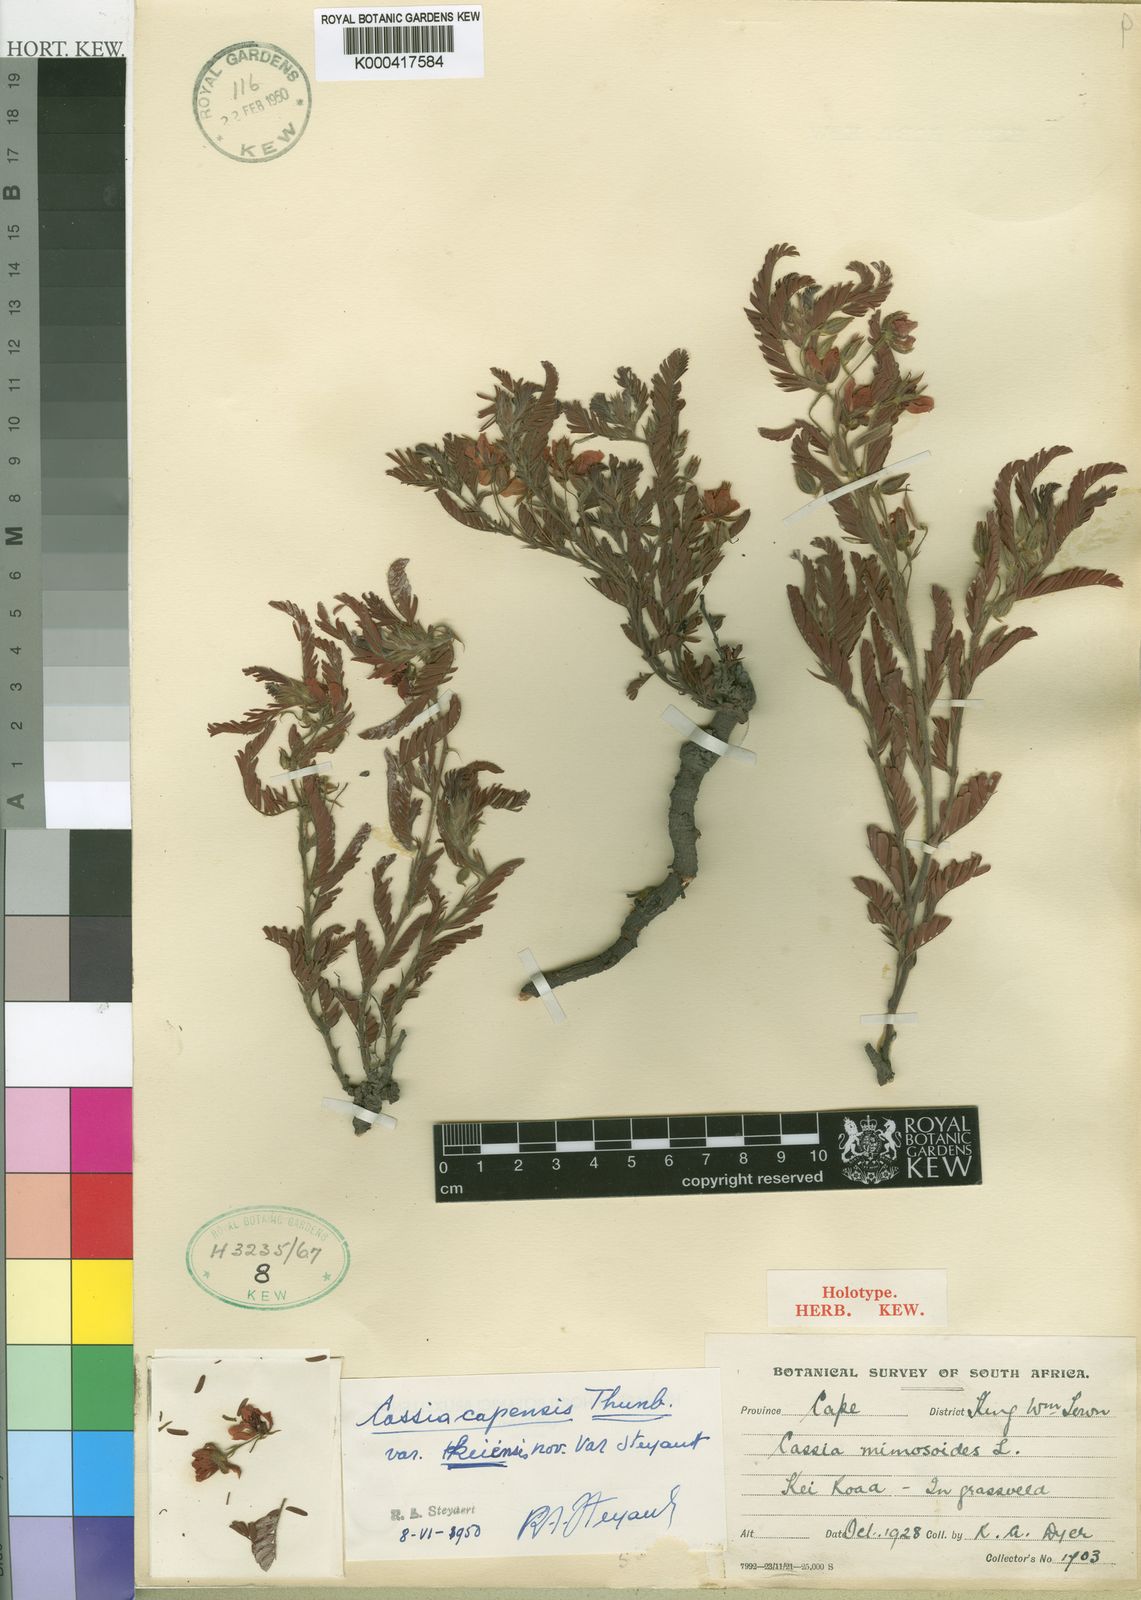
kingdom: Plantae
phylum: Tracheophyta
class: Magnoliopsida
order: Fabales
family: Fabaceae
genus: Chamaecrista
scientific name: Chamaecrista capensis
